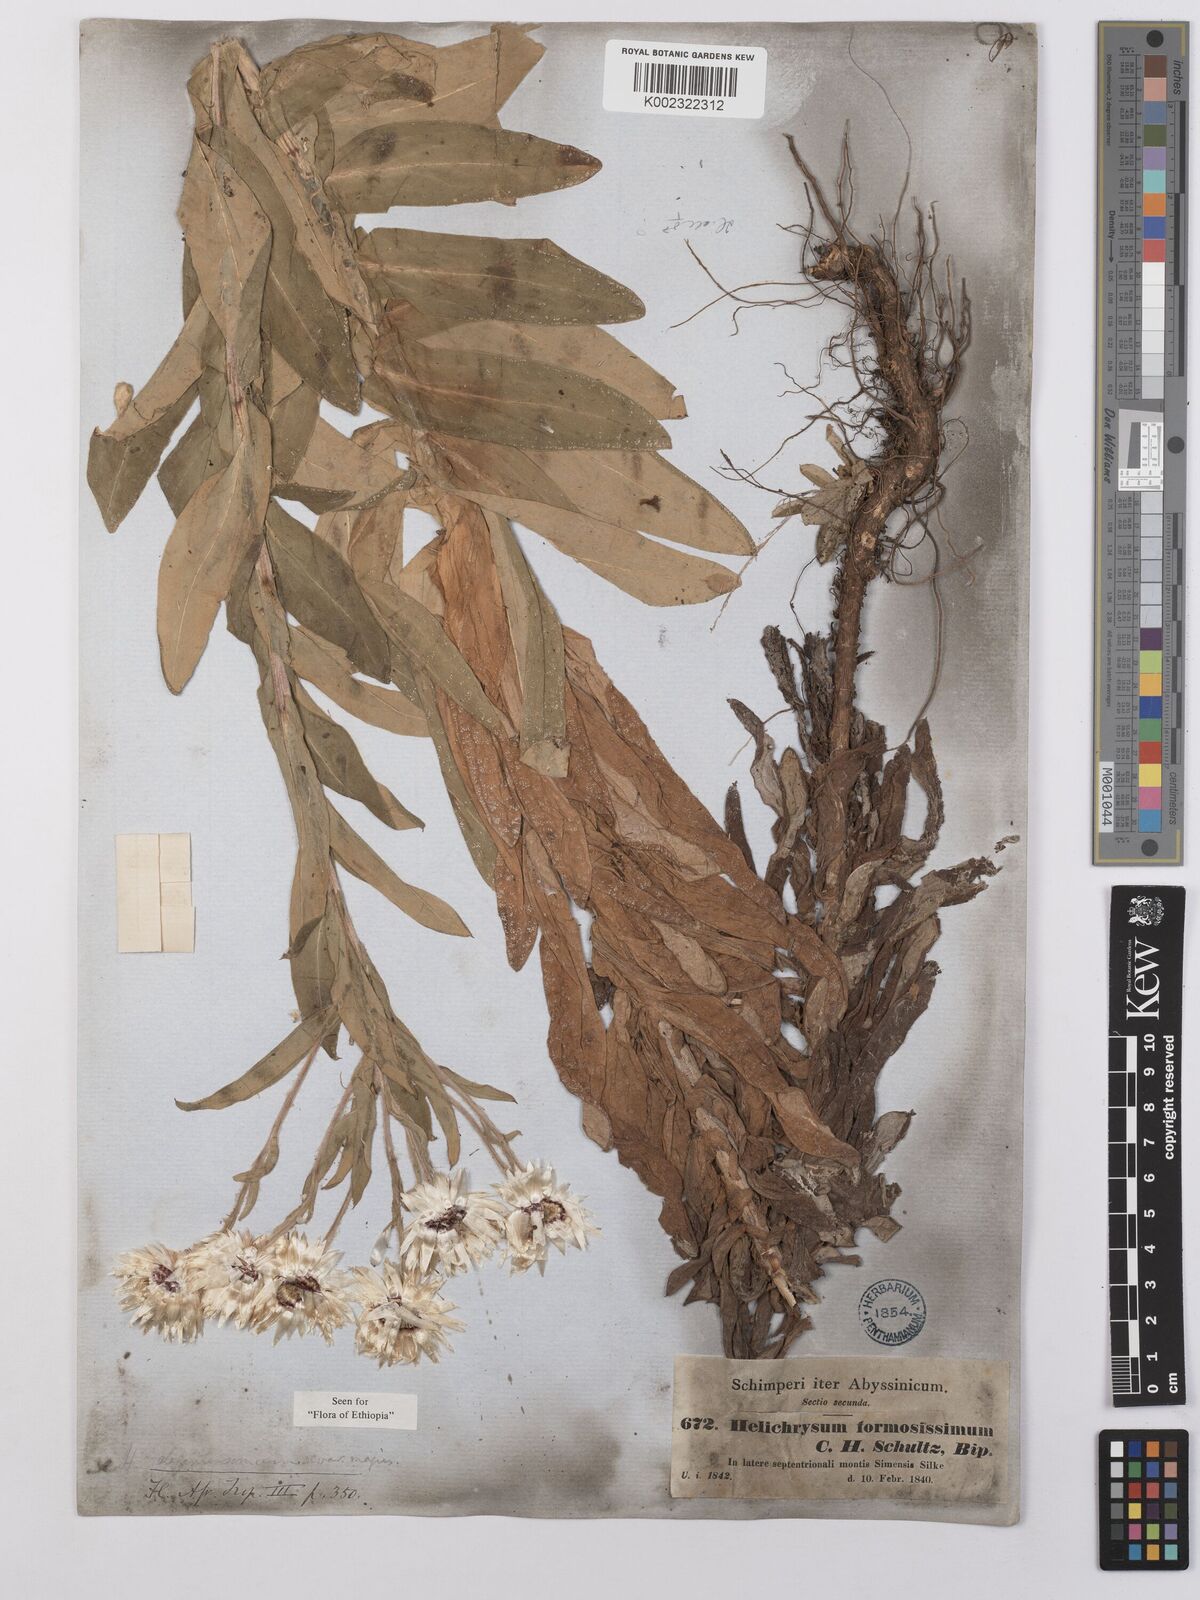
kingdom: Plantae
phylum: Tracheophyta
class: Magnoliopsida
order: Asterales
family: Asteraceae
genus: Helichrysum
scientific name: Helichrysum formosissimum
